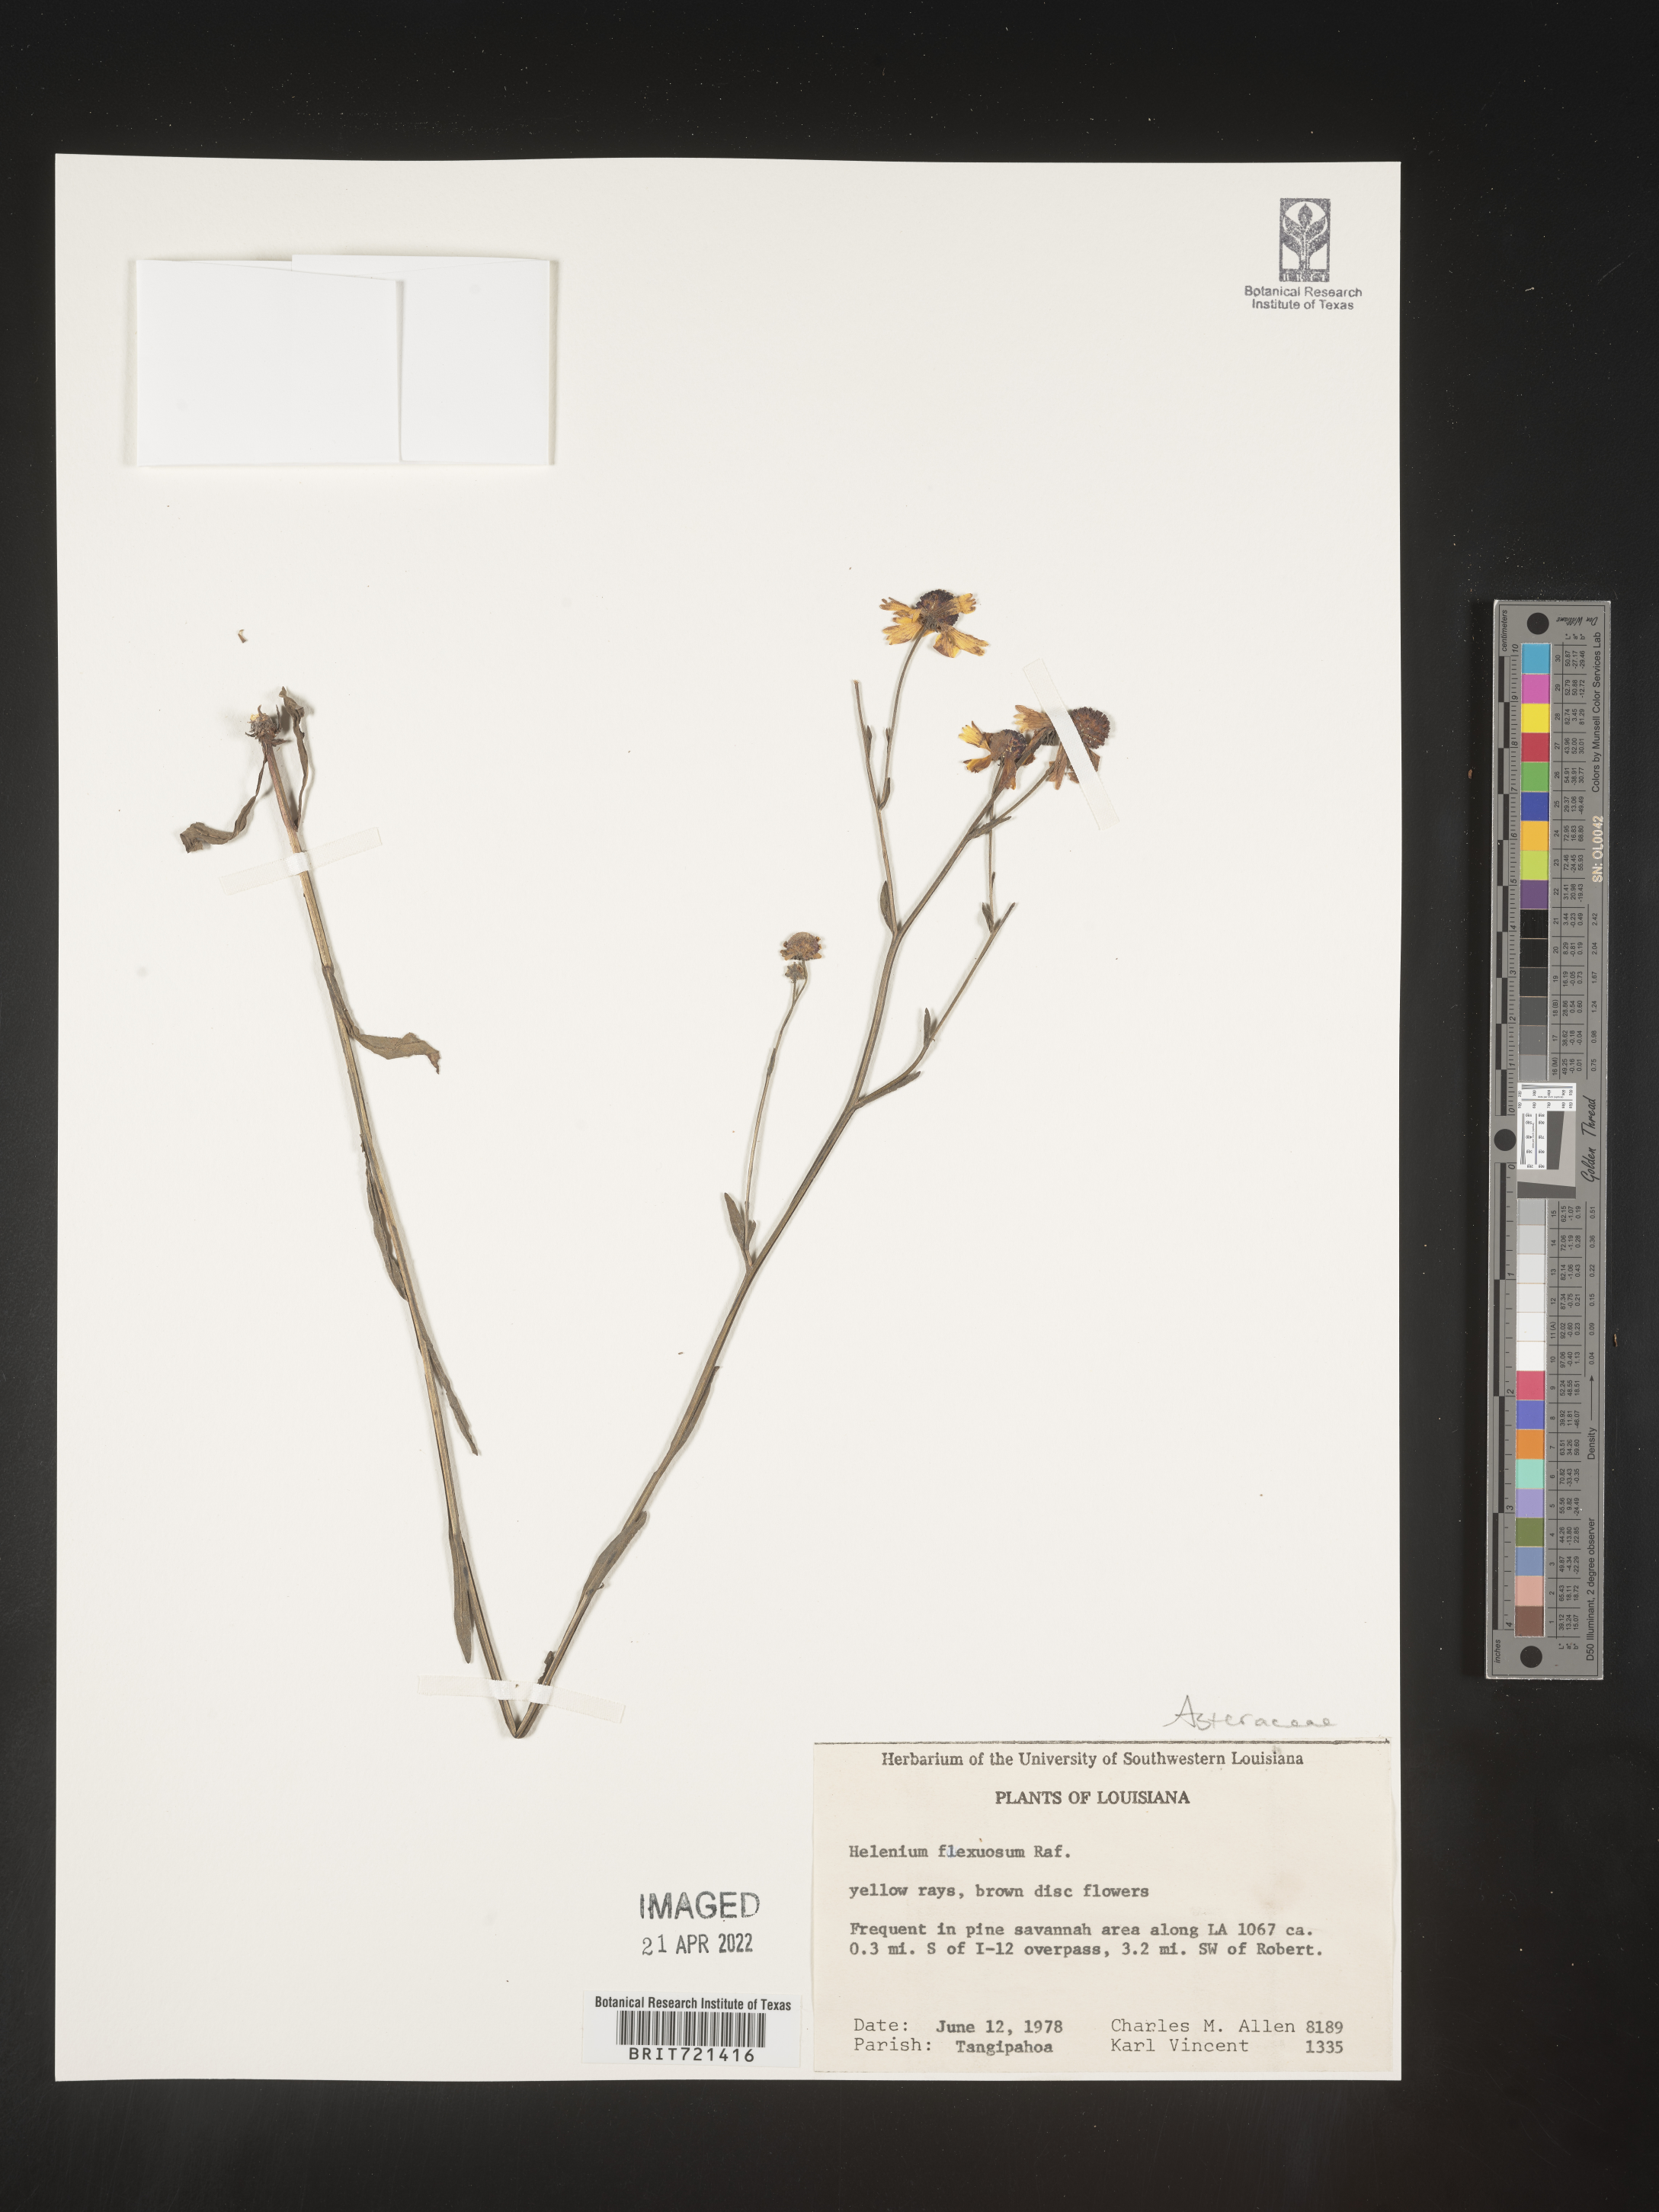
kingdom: Plantae
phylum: Tracheophyta
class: Magnoliopsida
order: Asterales
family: Asteraceae
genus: Helenium
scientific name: Helenium flexuosum
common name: Naked-flowered sneezeweed
